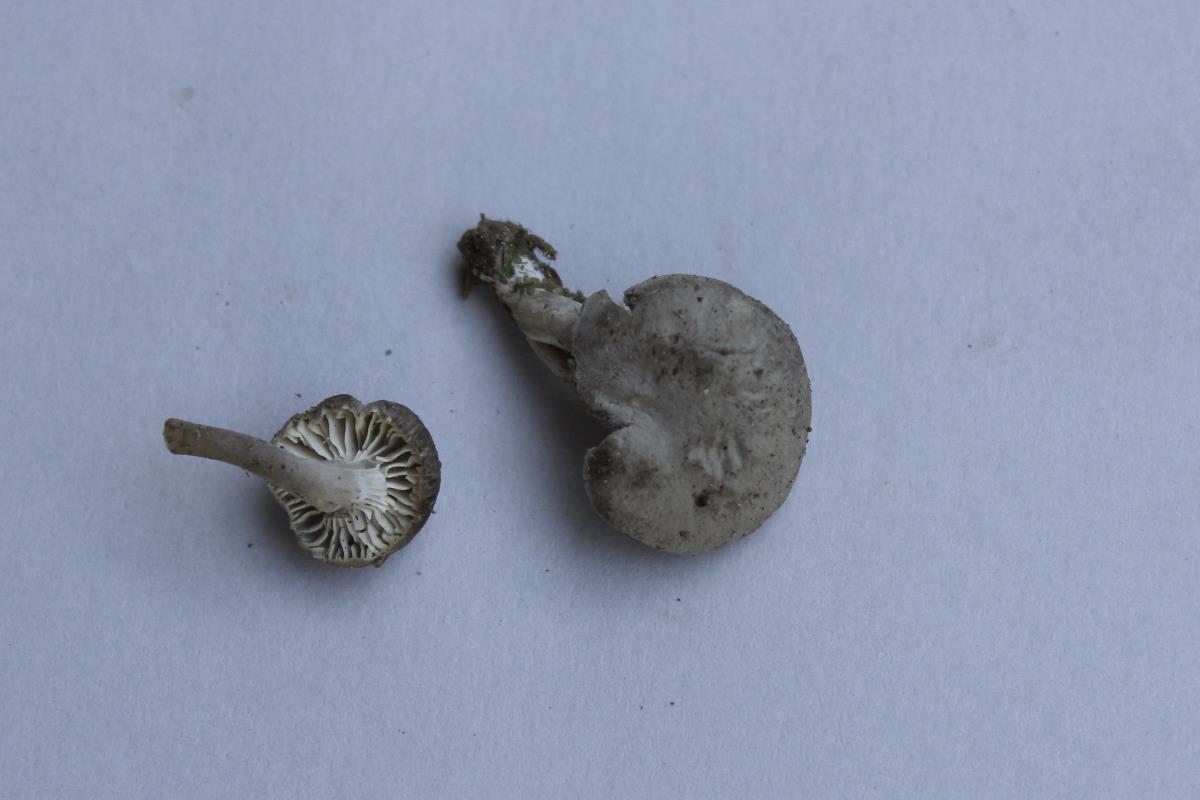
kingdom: Fungi
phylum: Basidiomycota
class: Agaricomycetes
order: Agaricales
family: Omphalotaceae
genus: Gymnopus
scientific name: Gymnopus
